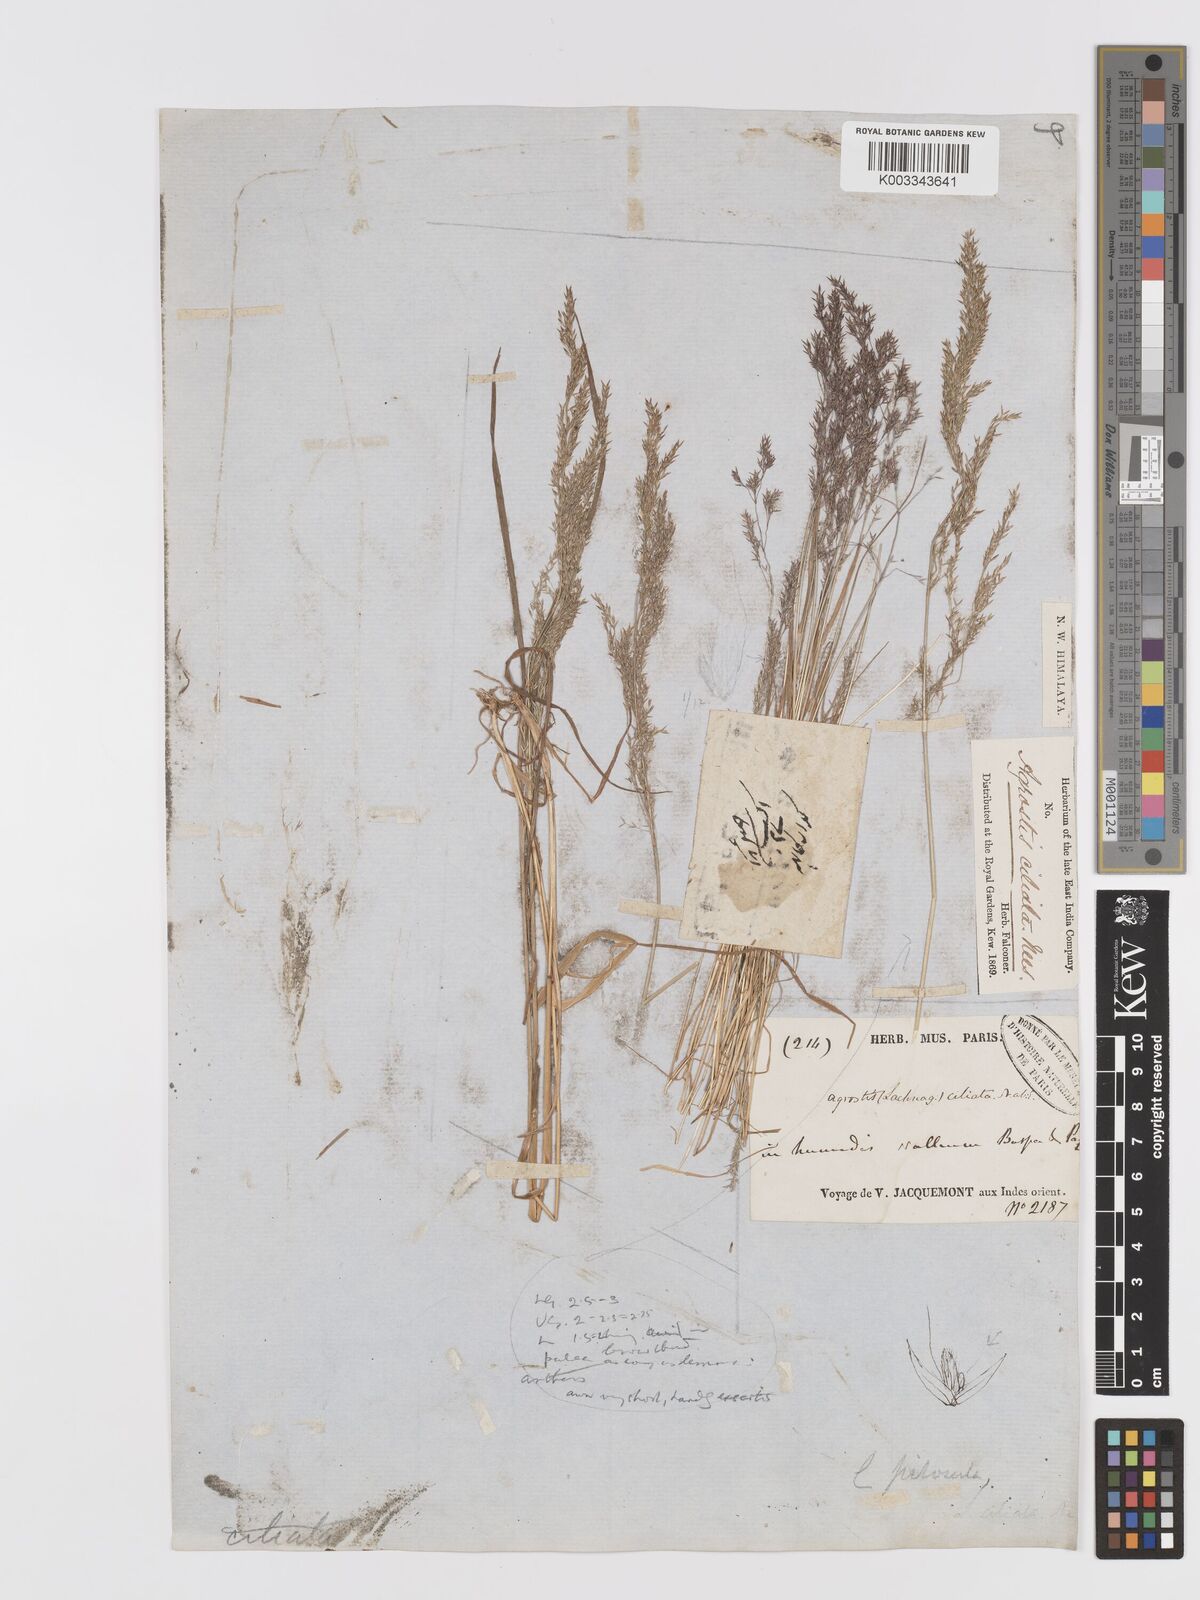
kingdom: Plantae
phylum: Tracheophyta
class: Liliopsida
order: Poales
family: Poaceae
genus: Agrostis
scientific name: Agrostis munroana
